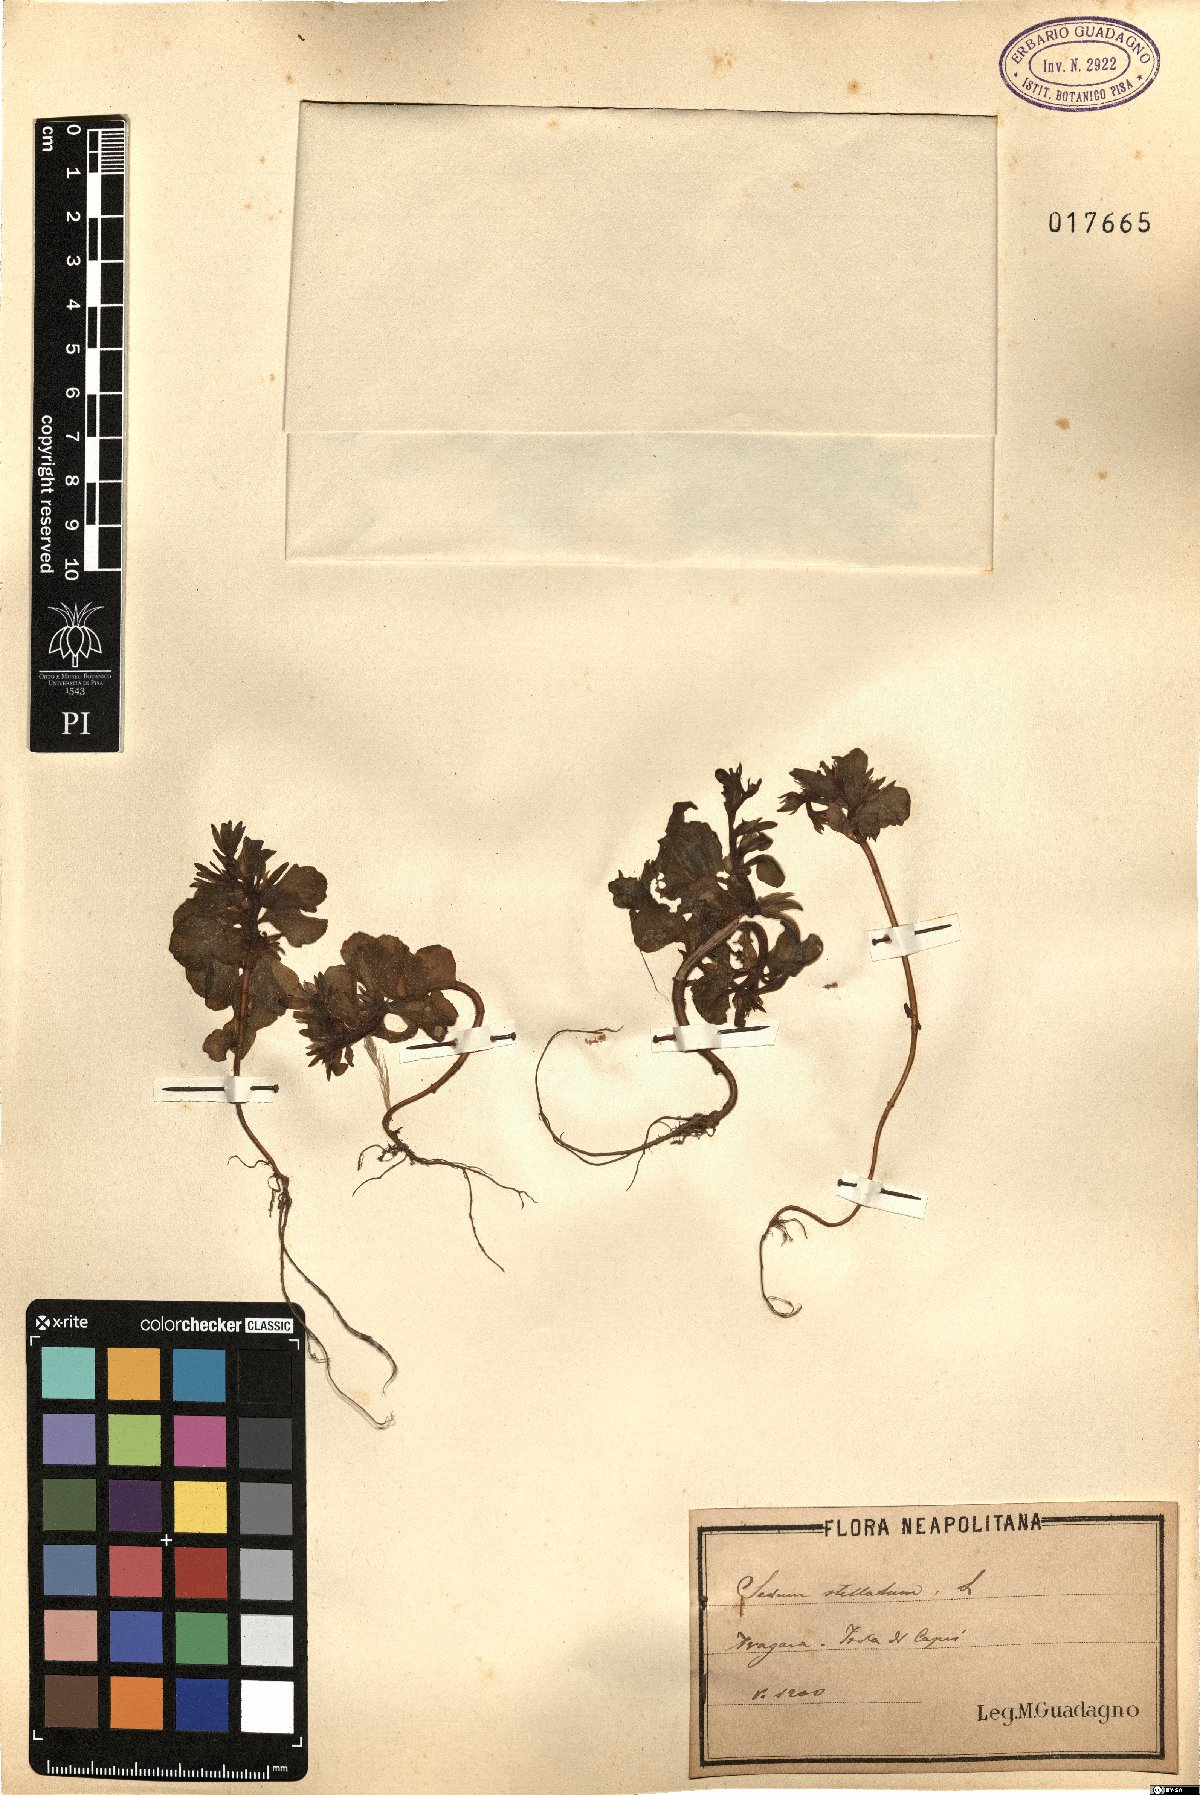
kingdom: Plantae
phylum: Tracheophyta
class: Magnoliopsida
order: Saxifragales
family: Crassulaceae
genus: Phedimus
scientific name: Phedimus stellatus
